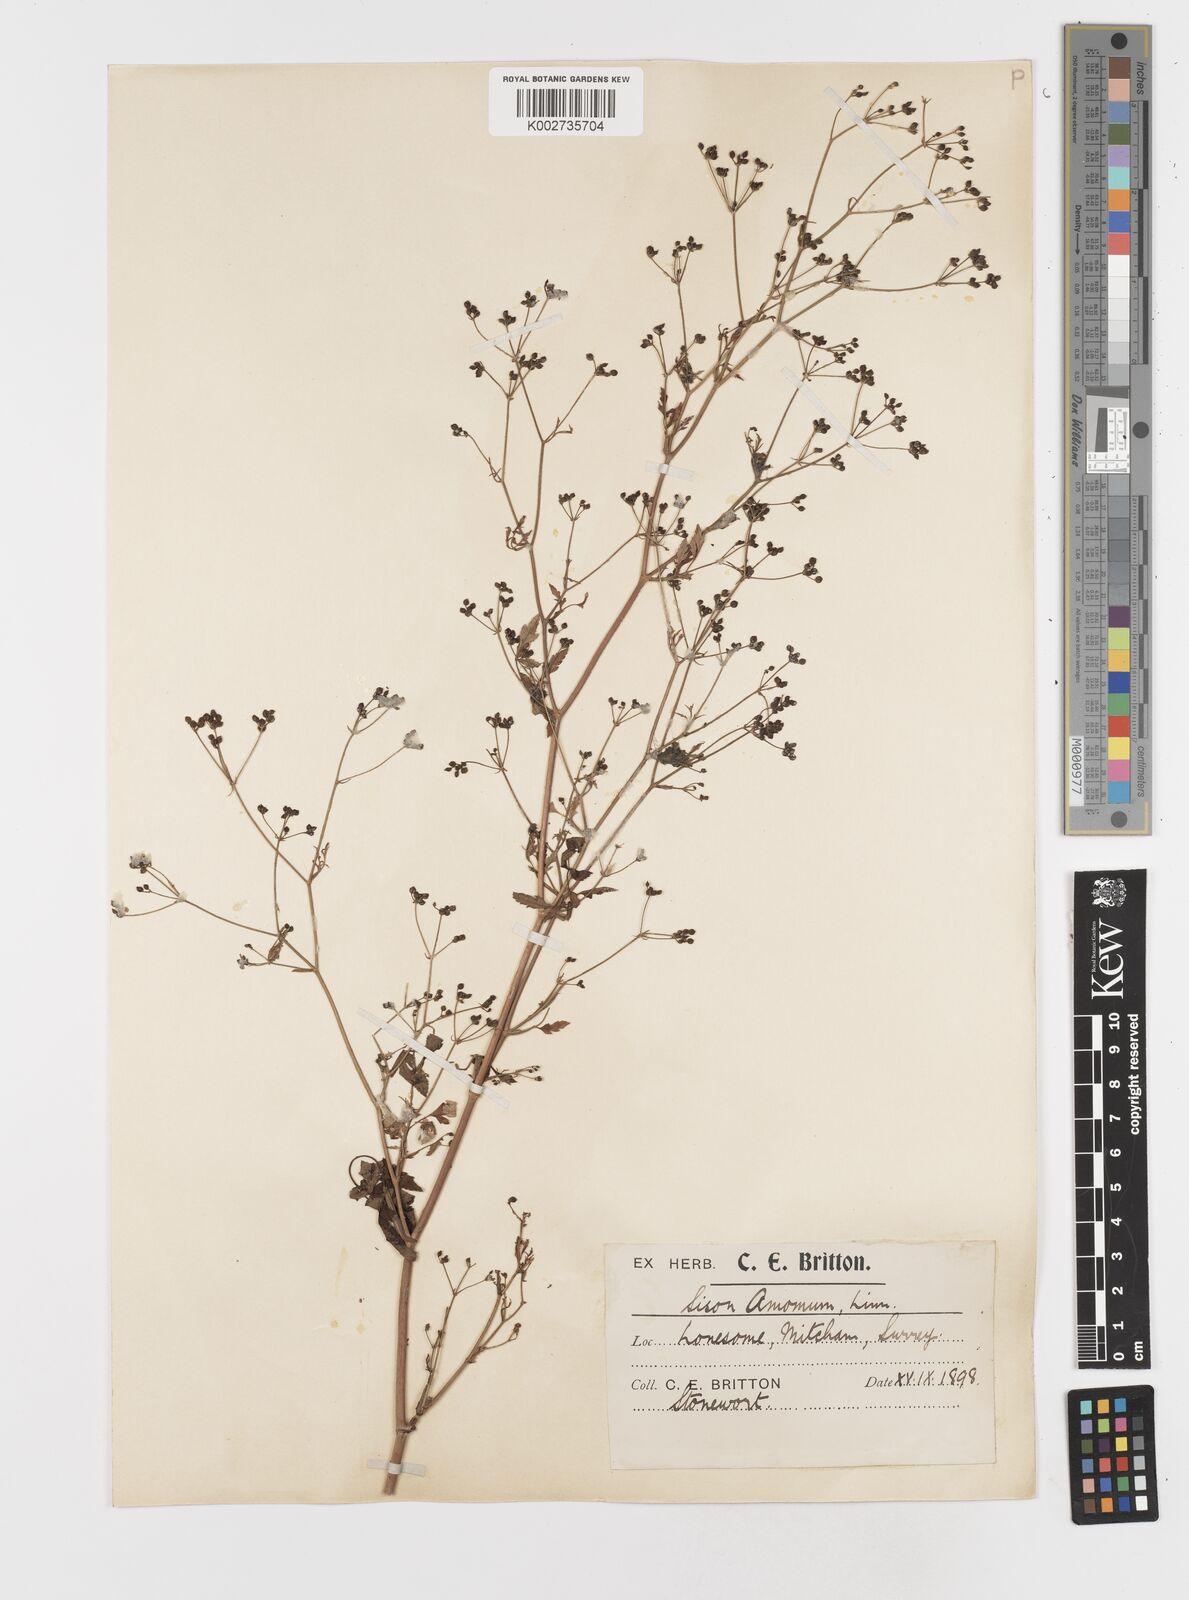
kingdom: Plantae
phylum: Tracheophyta
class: Magnoliopsida
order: Apiales
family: Apiaceae
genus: Sison
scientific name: Sison amomum
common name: Stone-parsley
